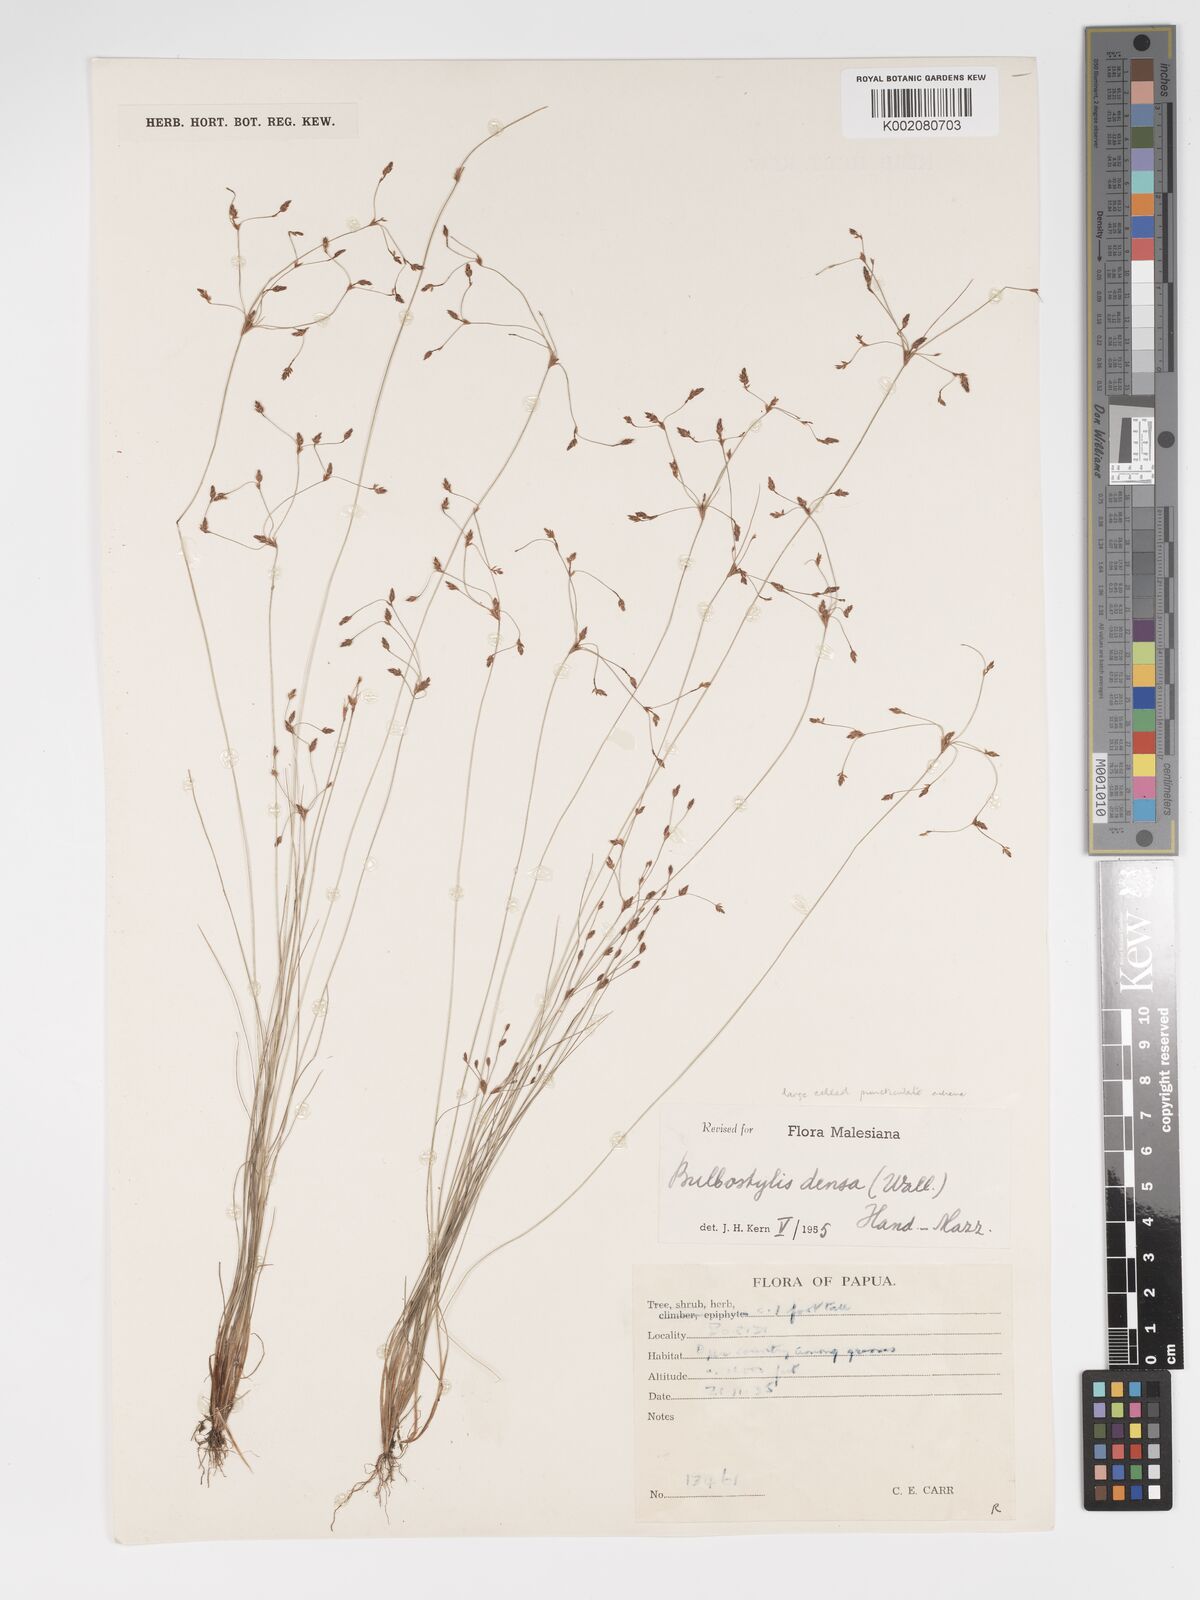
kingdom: Plantae
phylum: Tracheophyta
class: Liliopsida
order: Poales
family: Cyperaceae
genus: Bulbostylis
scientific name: Bulbostylis densa
